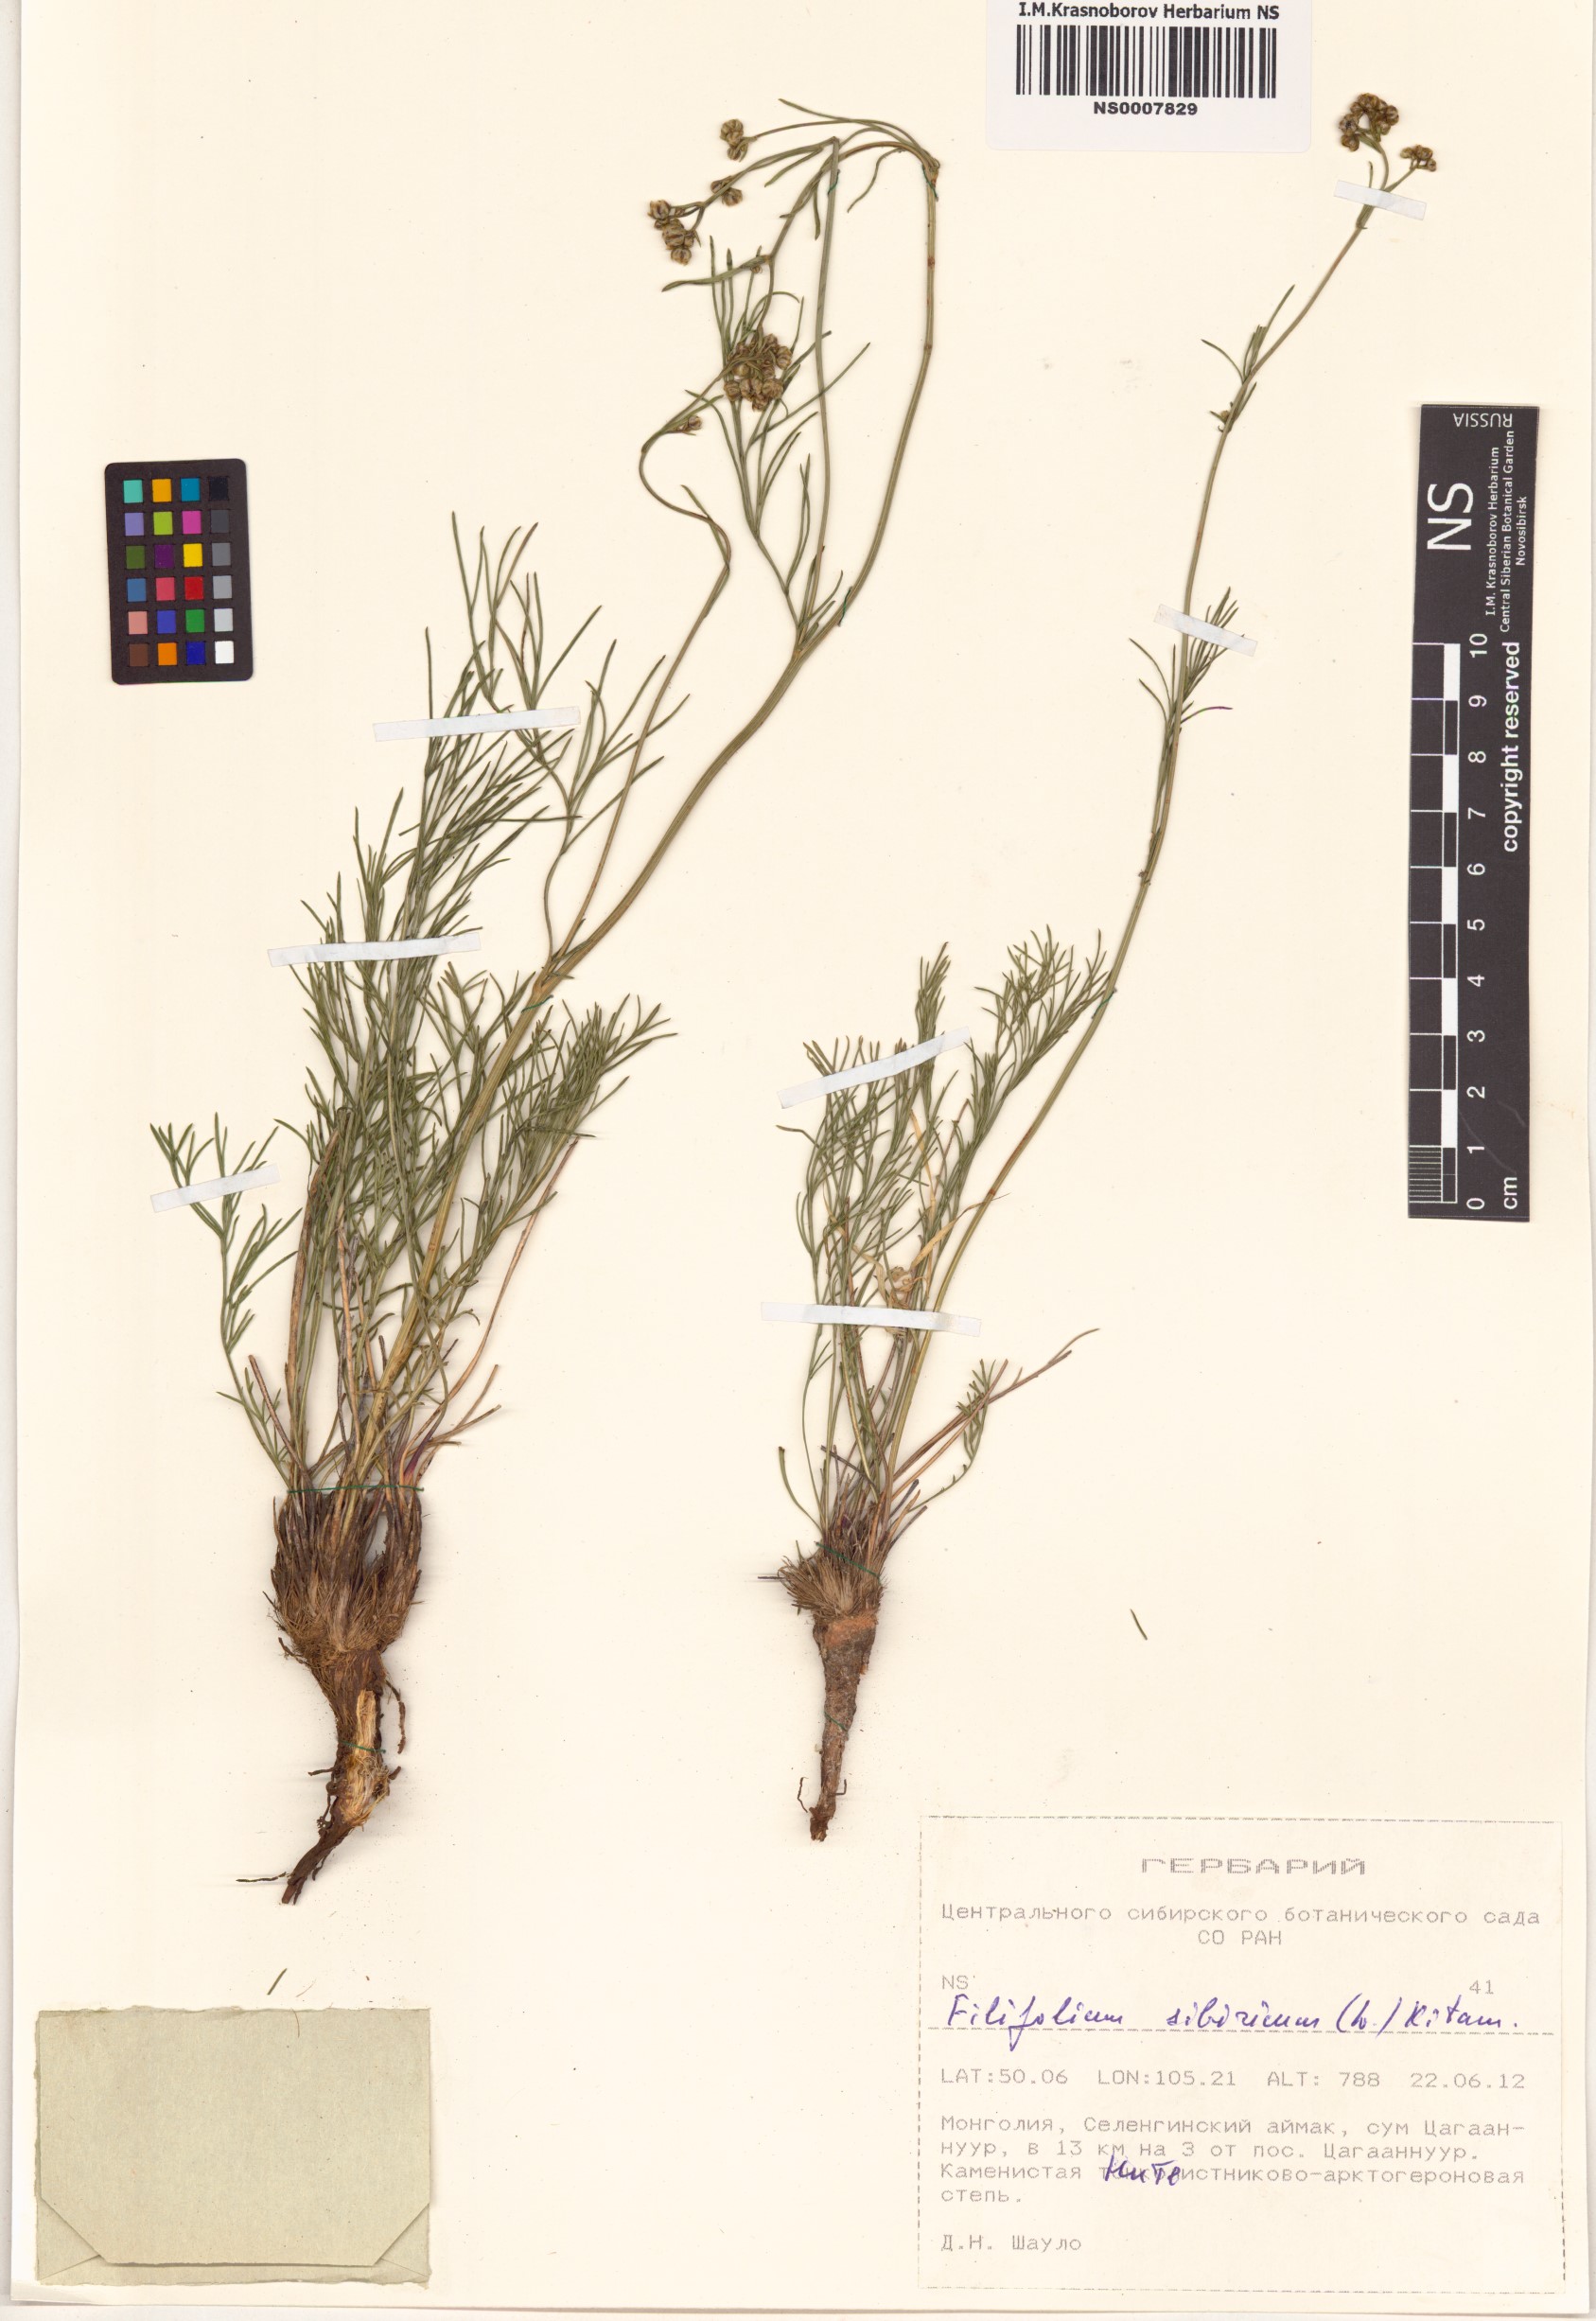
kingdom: Plantae
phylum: Tracheophyta
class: Magnoliopsida
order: Asterales
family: Asteraceae
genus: Filifolium
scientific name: Filifolium sibiricum
